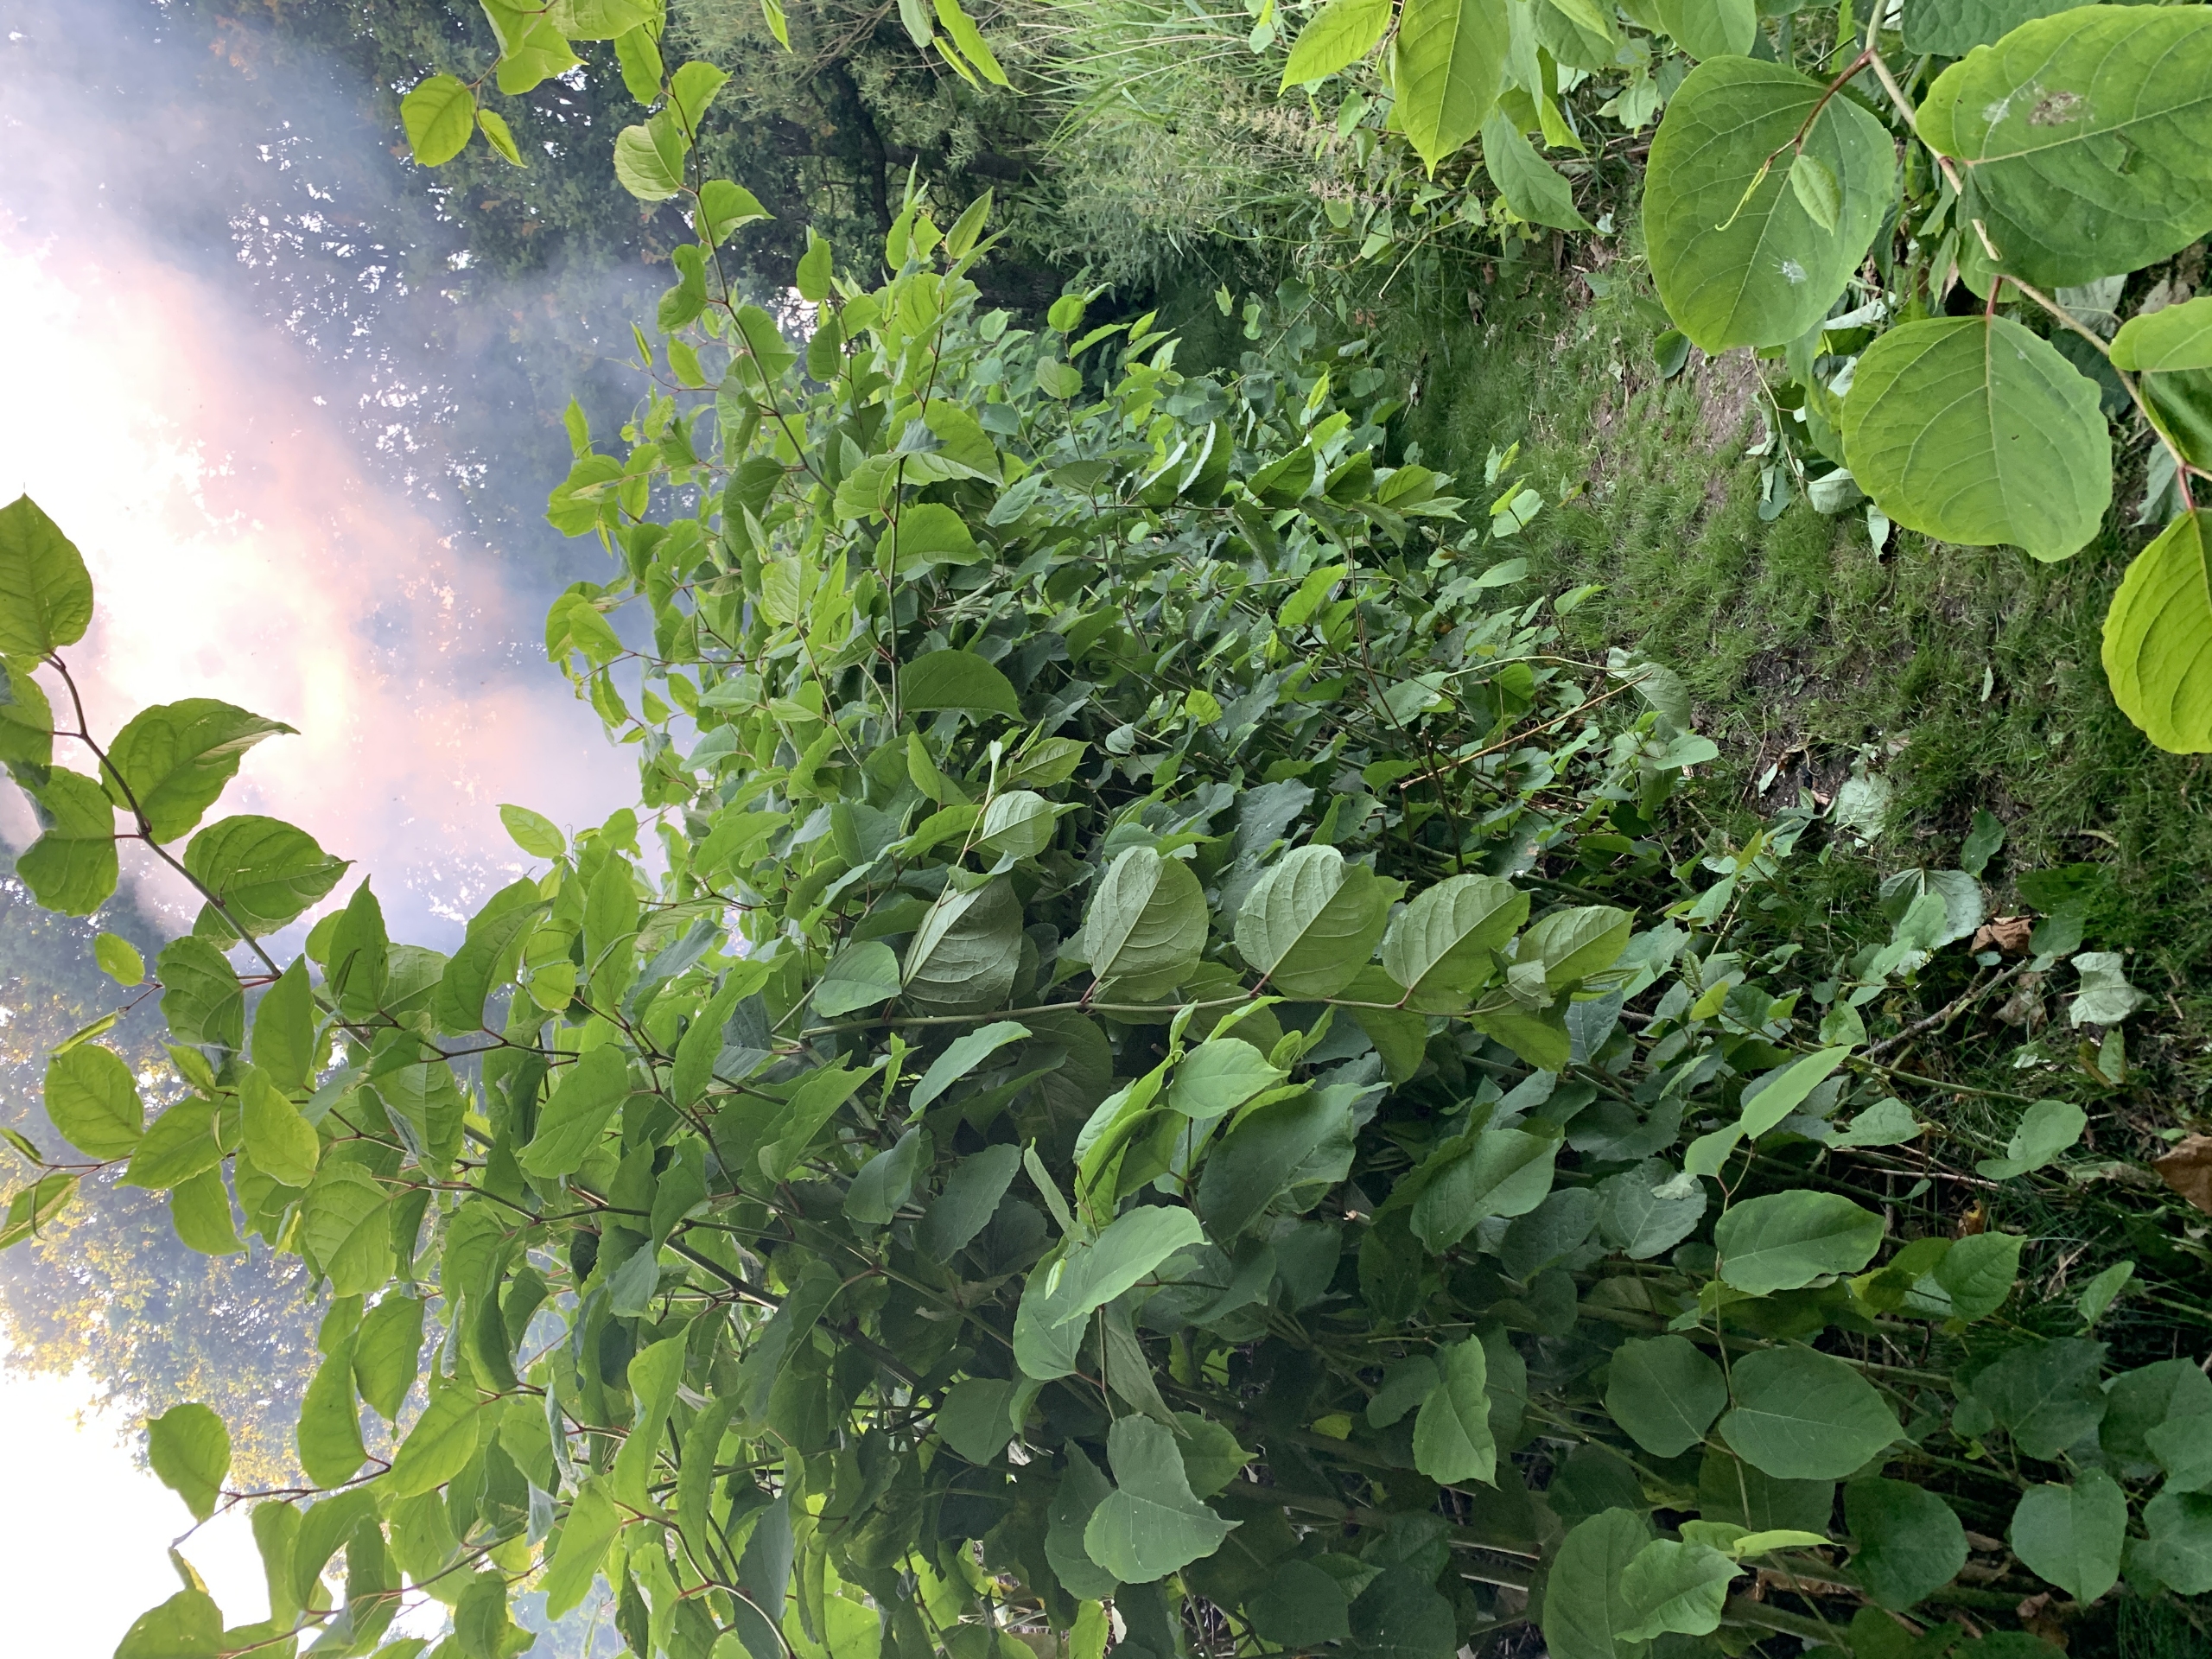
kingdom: Plantae
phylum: Tracheophyta
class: Magnoliopsida
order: Caryophyllales
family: Polygonaceae
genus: Reynoutria
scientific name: Reynoutria bohemica
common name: Hybrid-pileurt
